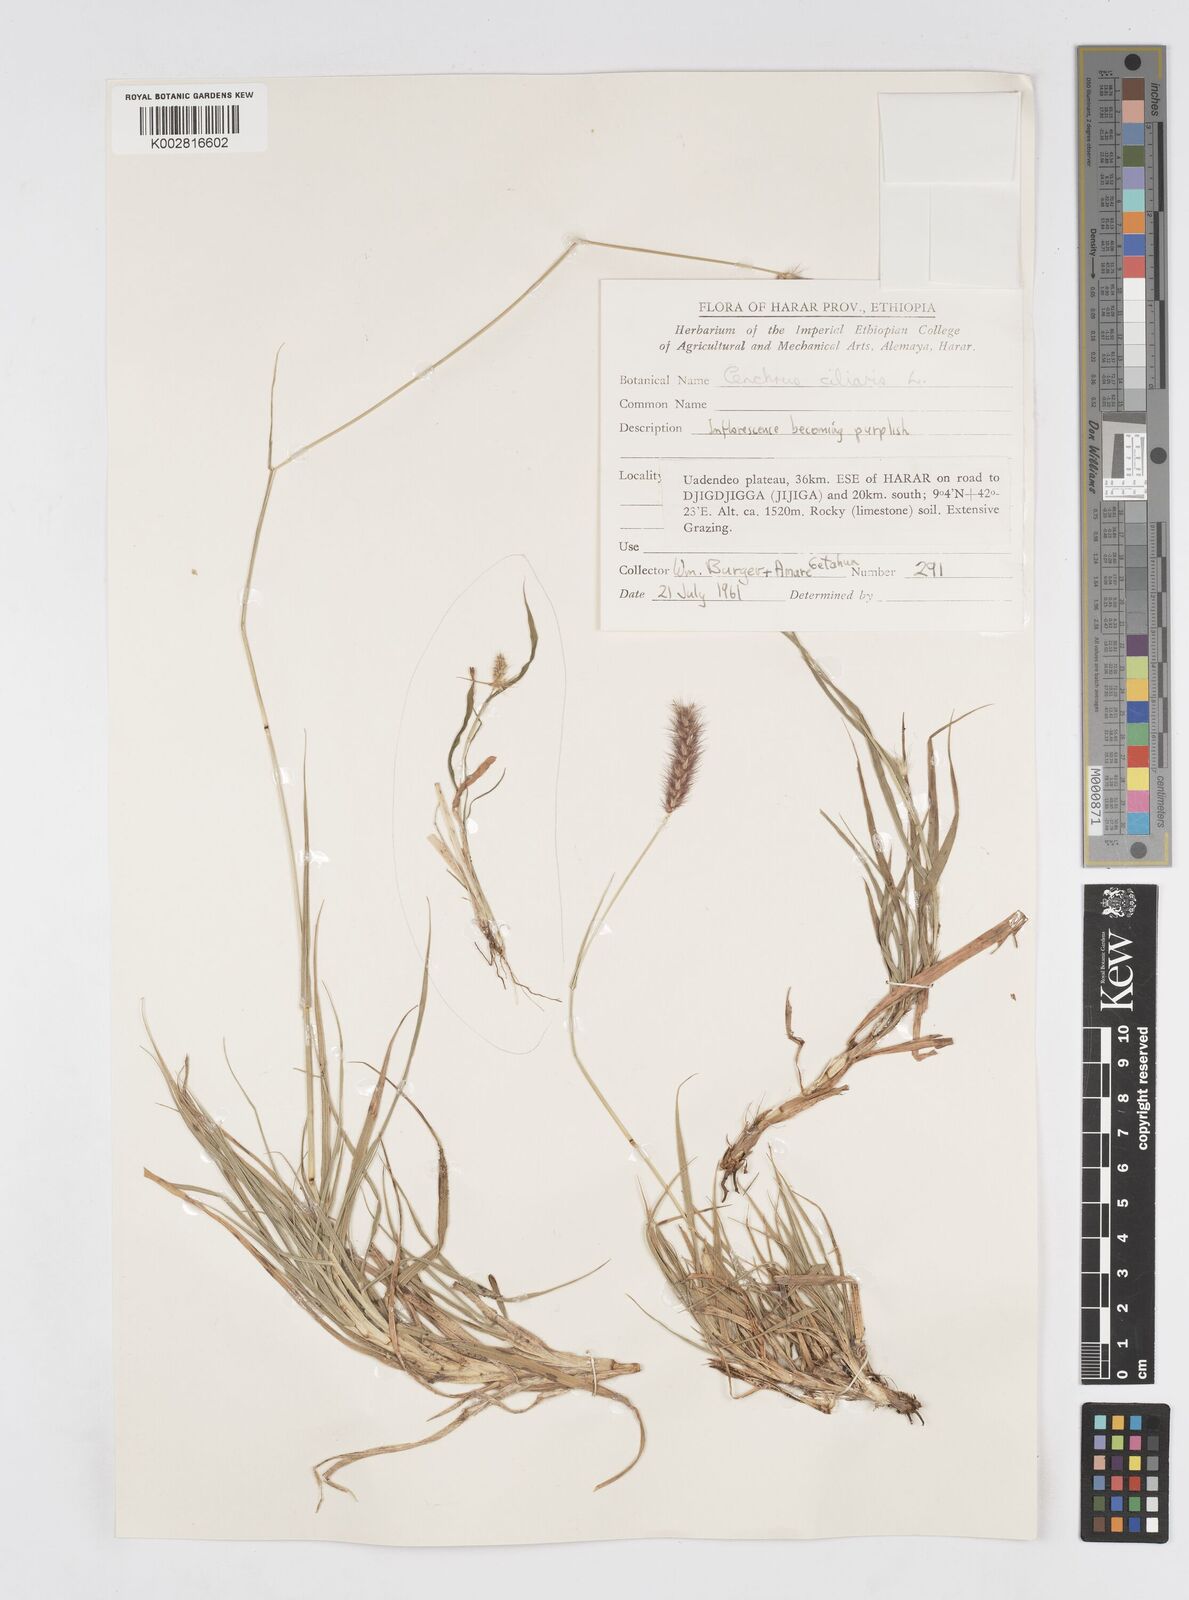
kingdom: Plantae
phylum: Tracheophyta
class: Liliopsida
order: Poales
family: Poaceae
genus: Cenchrus
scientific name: Cenchrus ciliaris
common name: Buffelgrass
